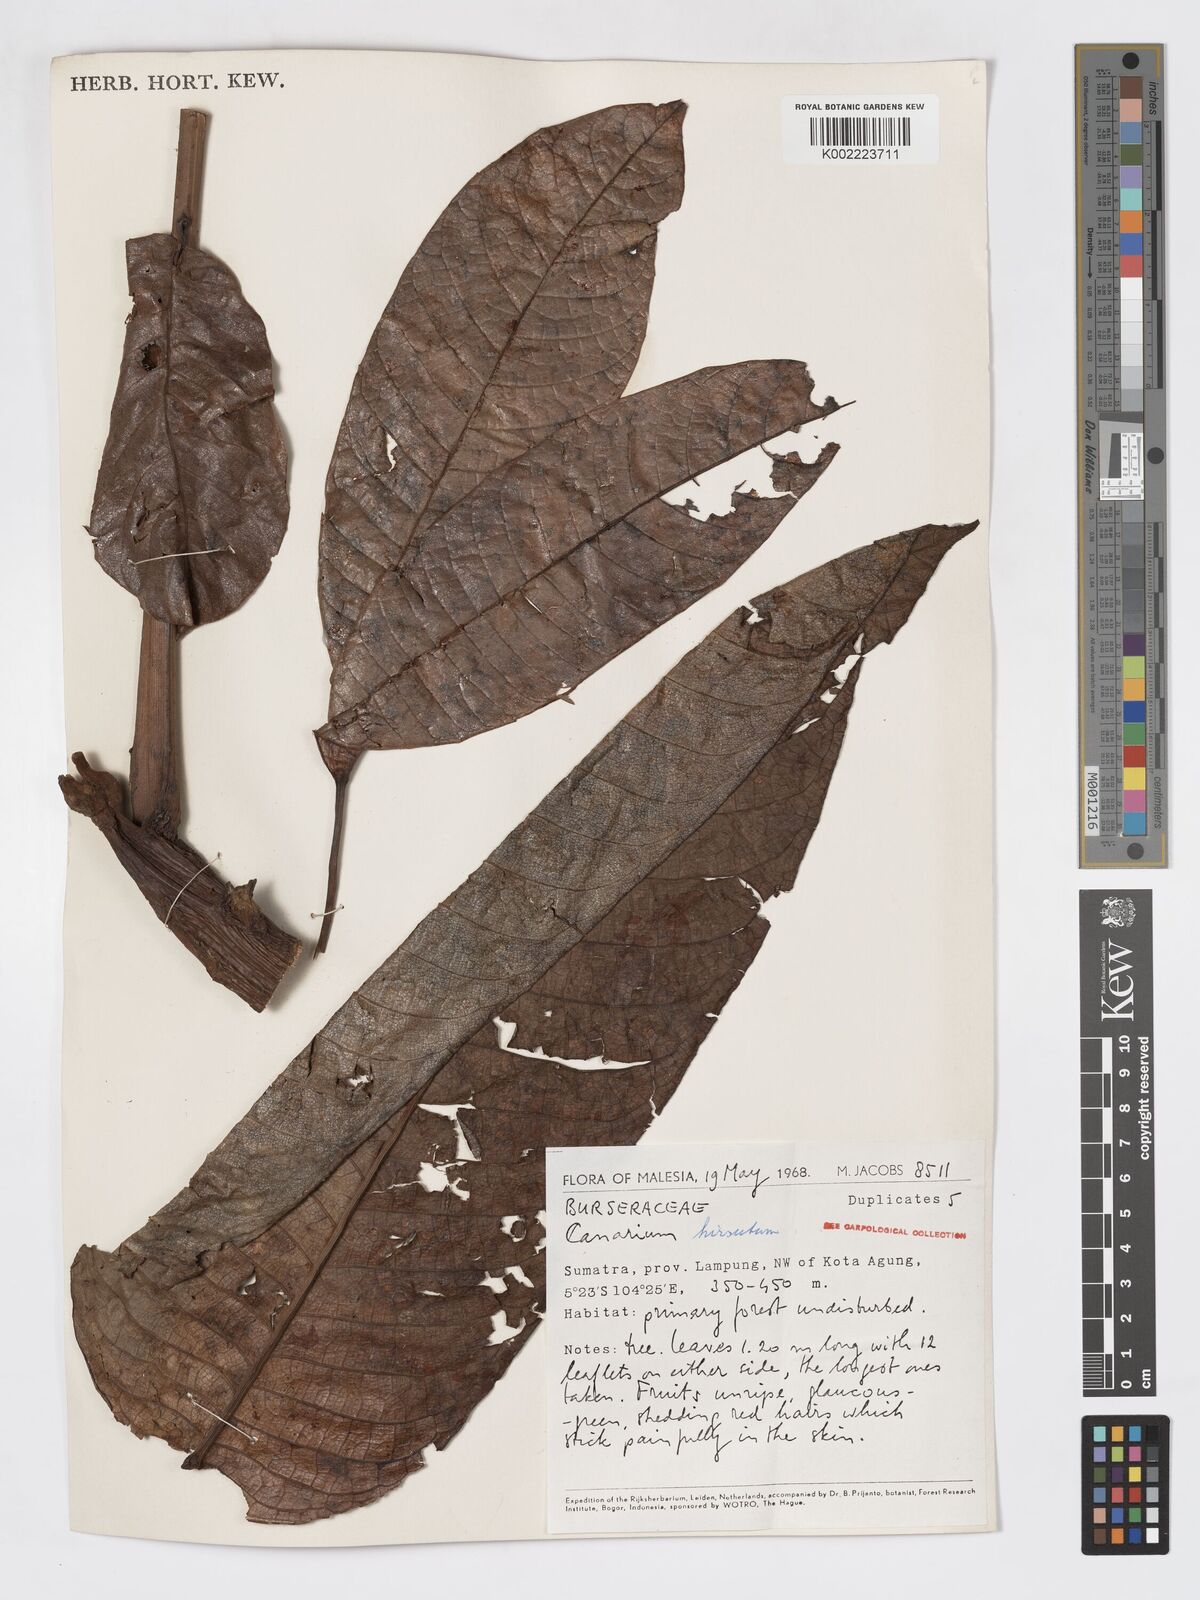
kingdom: Plantae
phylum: Tracheophyta
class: Magnoliopsida
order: Sapindales
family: Burseraceae
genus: Canarium
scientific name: Canarium hirsutum
